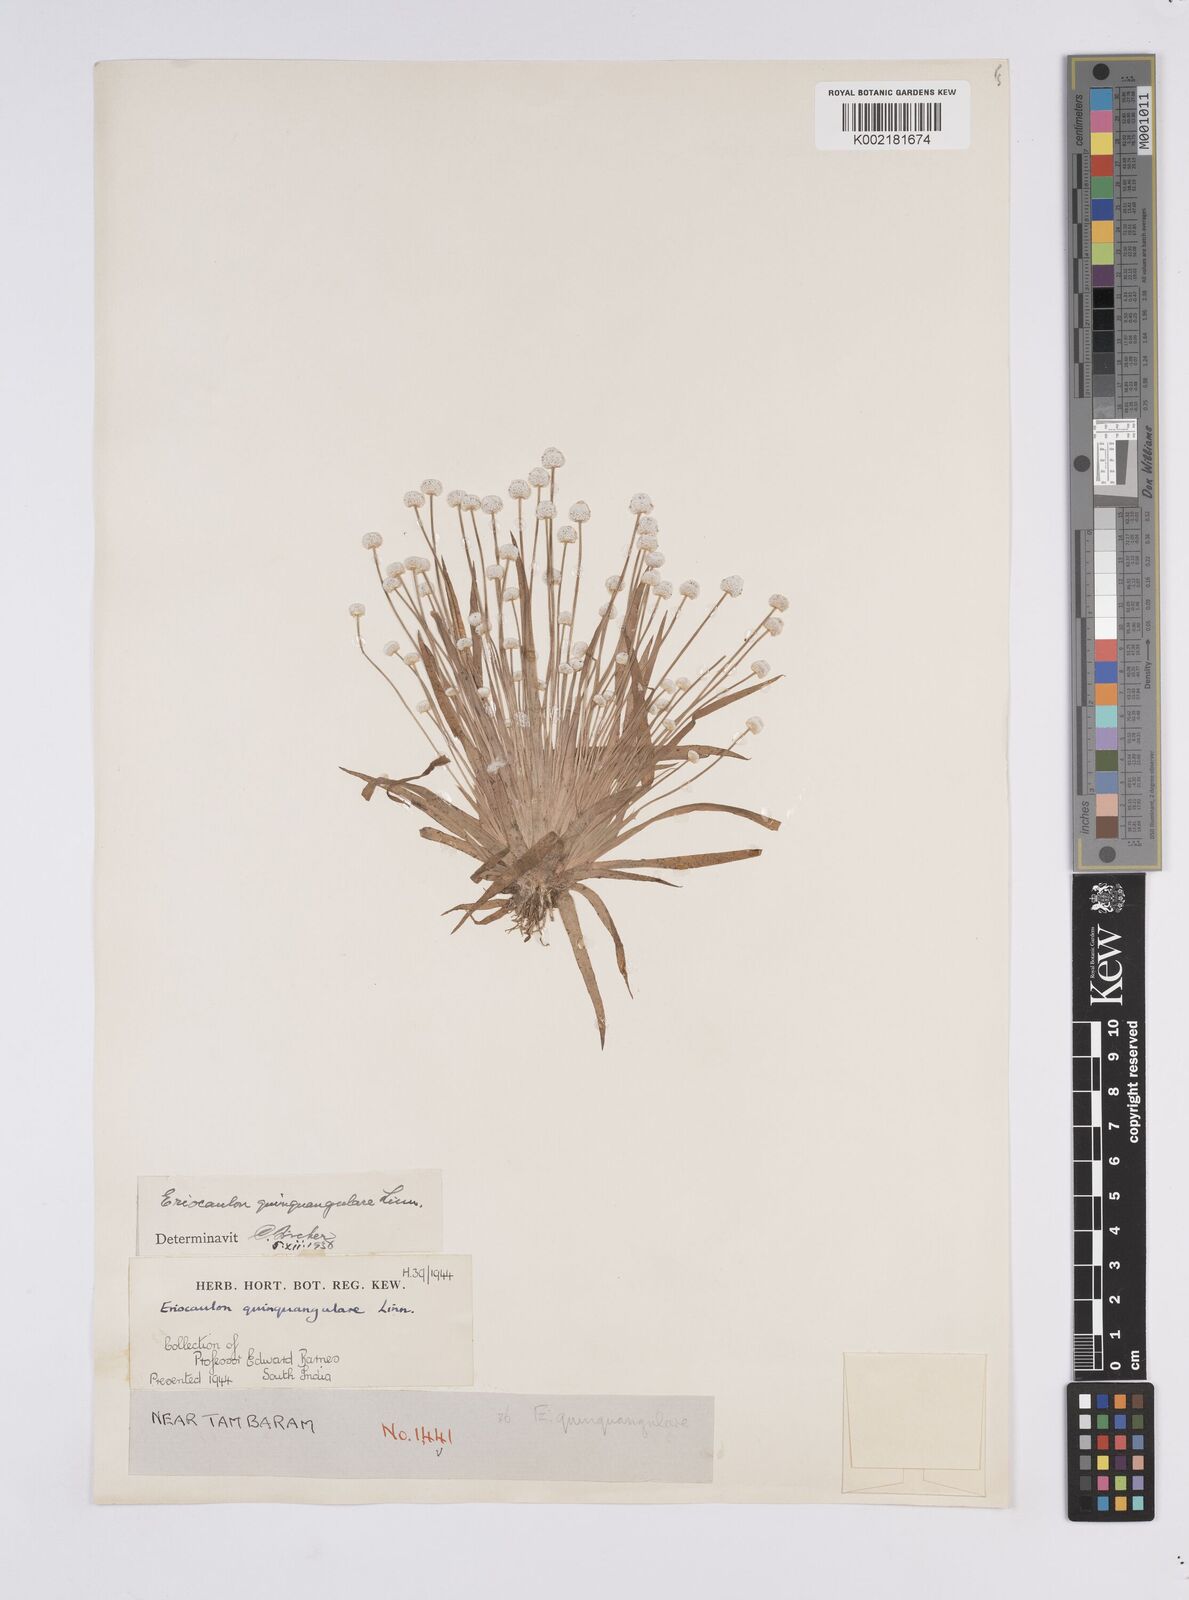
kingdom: Plantae
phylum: Tracheophyta
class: Liliopsida
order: Poales
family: Eriocaulaceae
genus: Eriocaulon
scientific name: Eriocaulon quinquangulare
